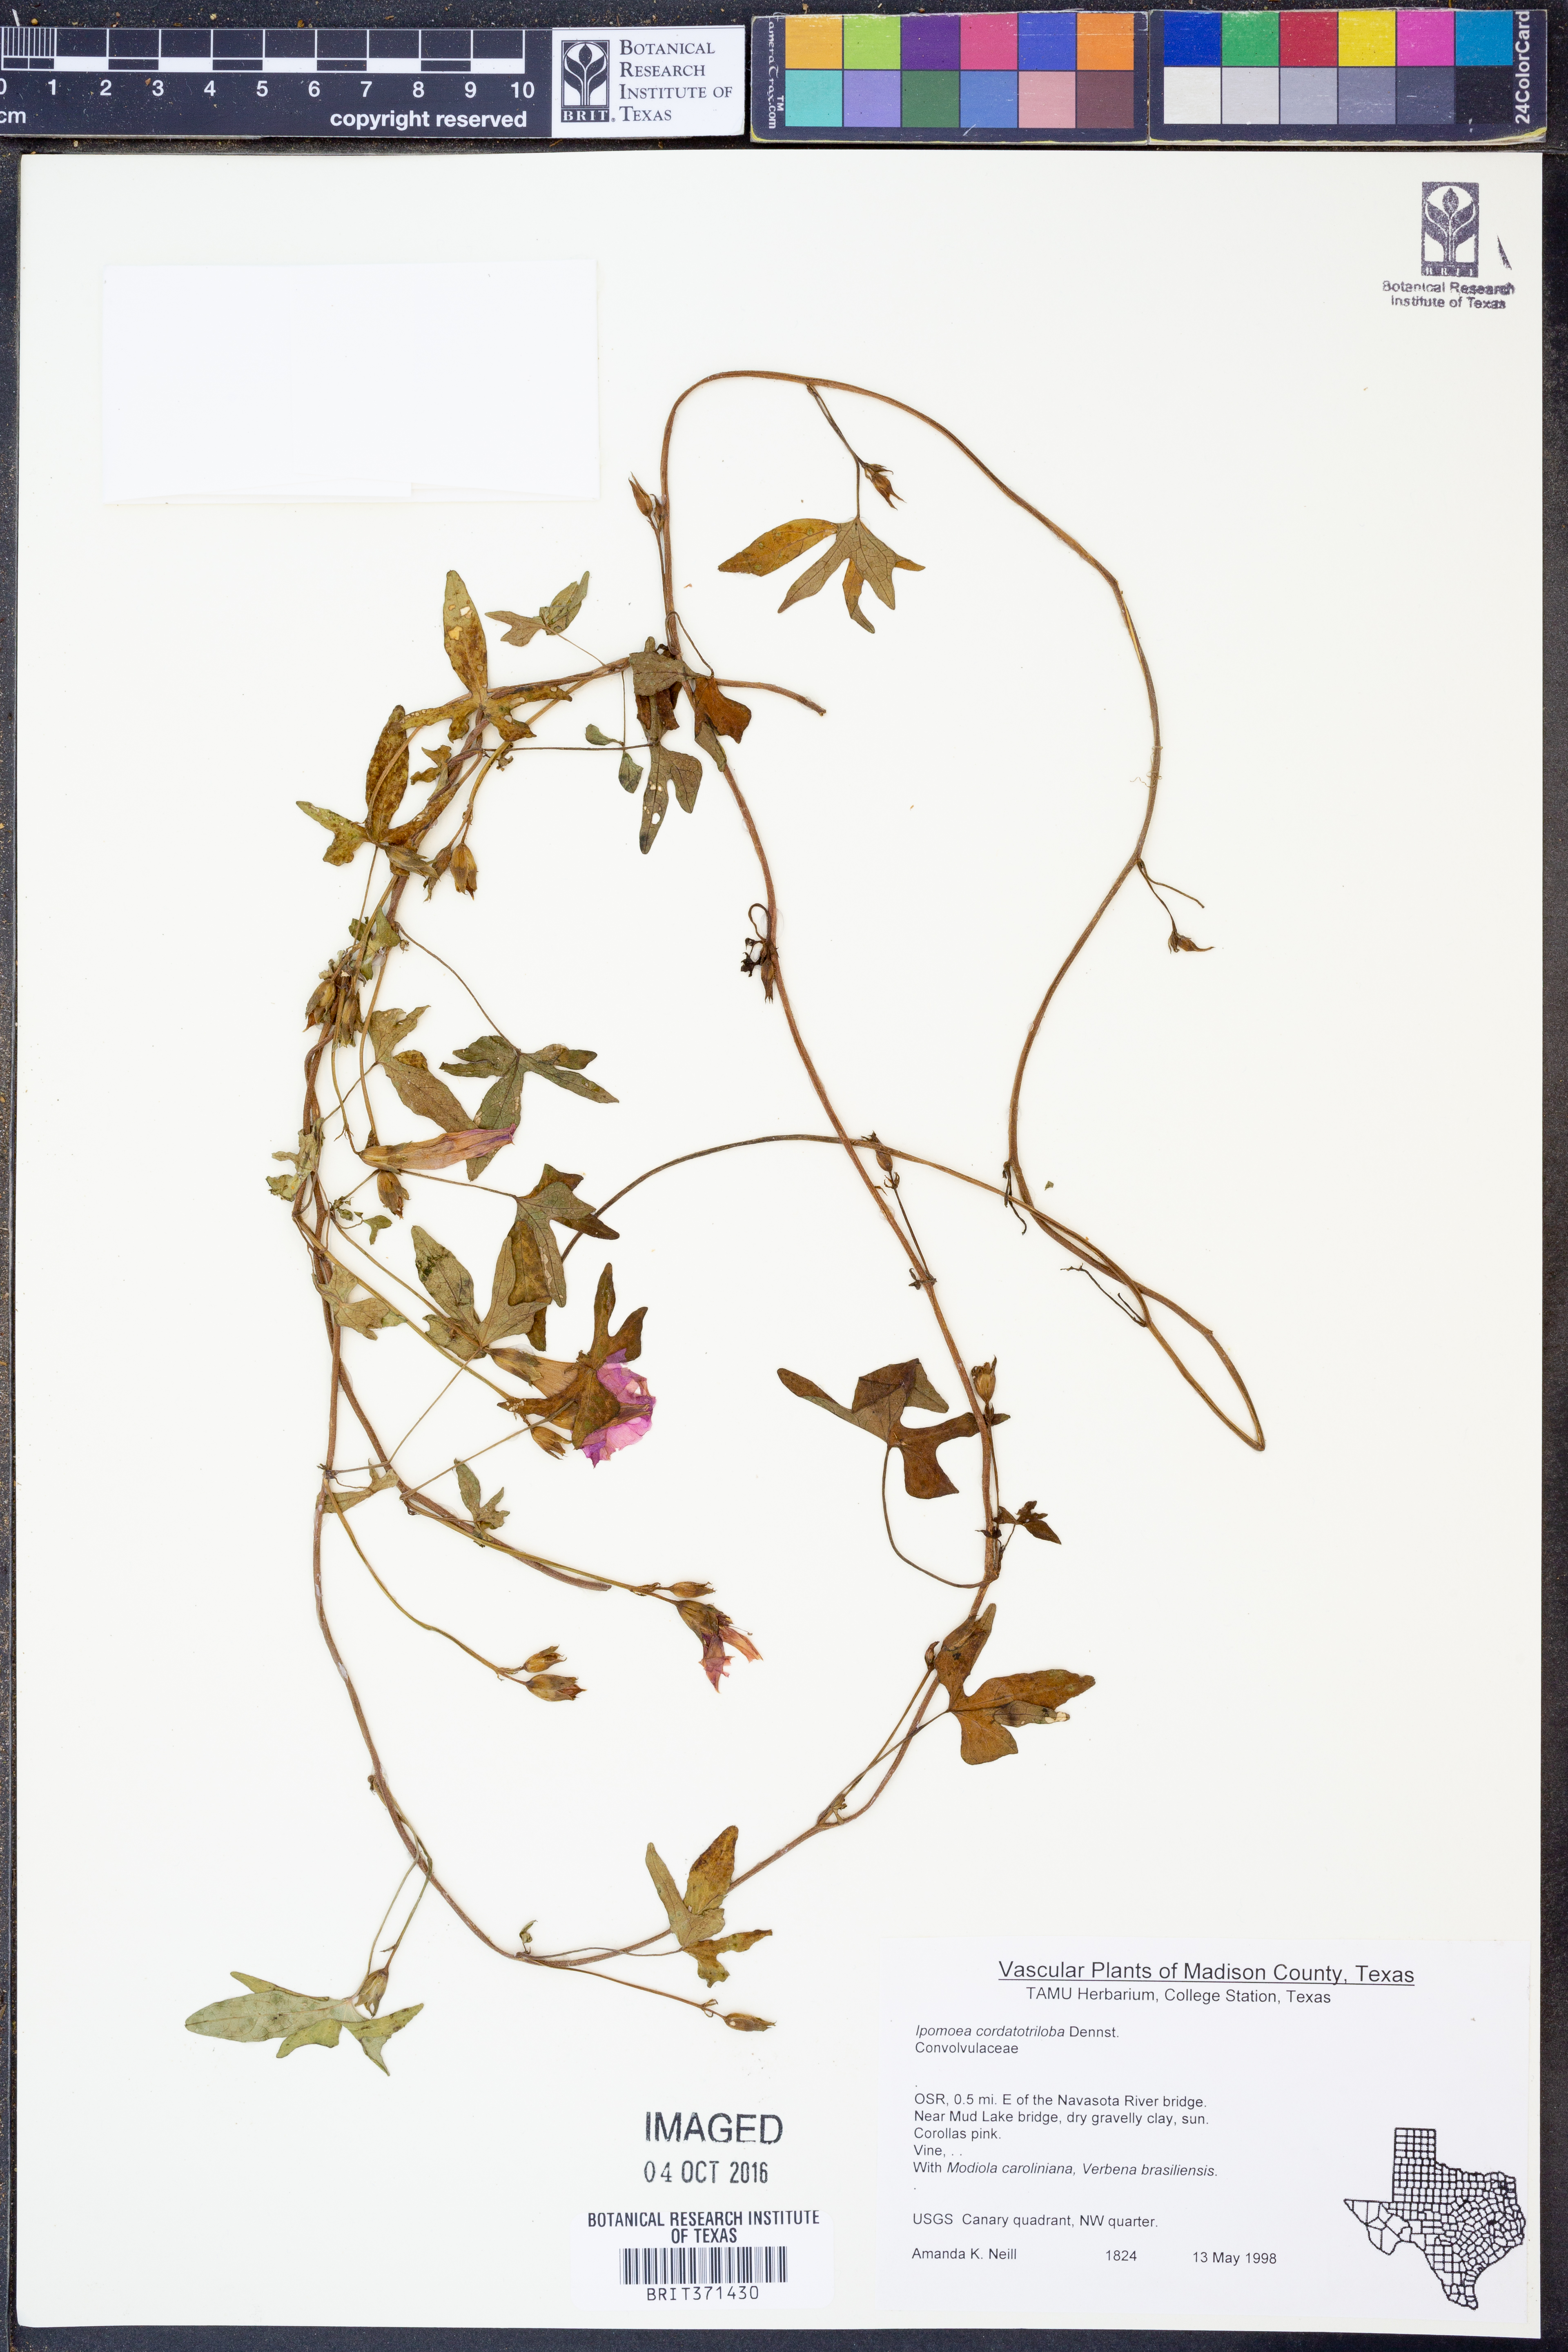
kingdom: Plantae
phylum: Tracheophyta
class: Magnoliopsida
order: Solanales
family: Convolvulaceae
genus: Ipomoea
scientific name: Ipomoea cordatotriloba
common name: Cotton morning glory
